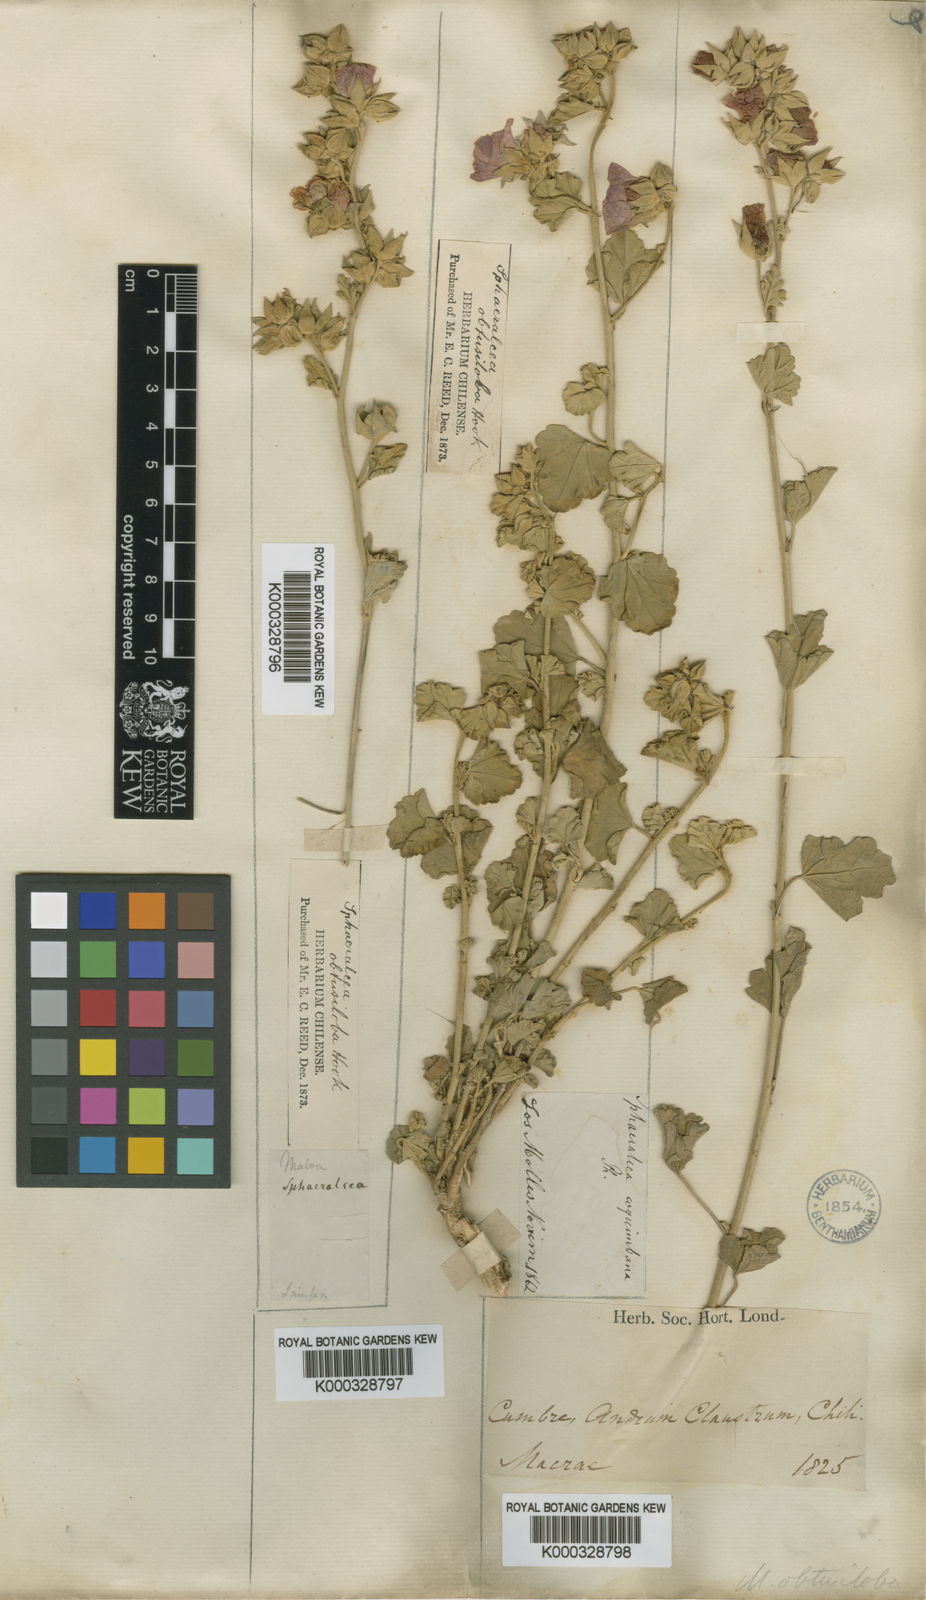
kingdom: Plantae
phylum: Tracheophyta
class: Magnoliopsida
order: Malvales
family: Malvaceae
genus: Sphaeralcea
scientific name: Sphaeralcea obtusiloba
